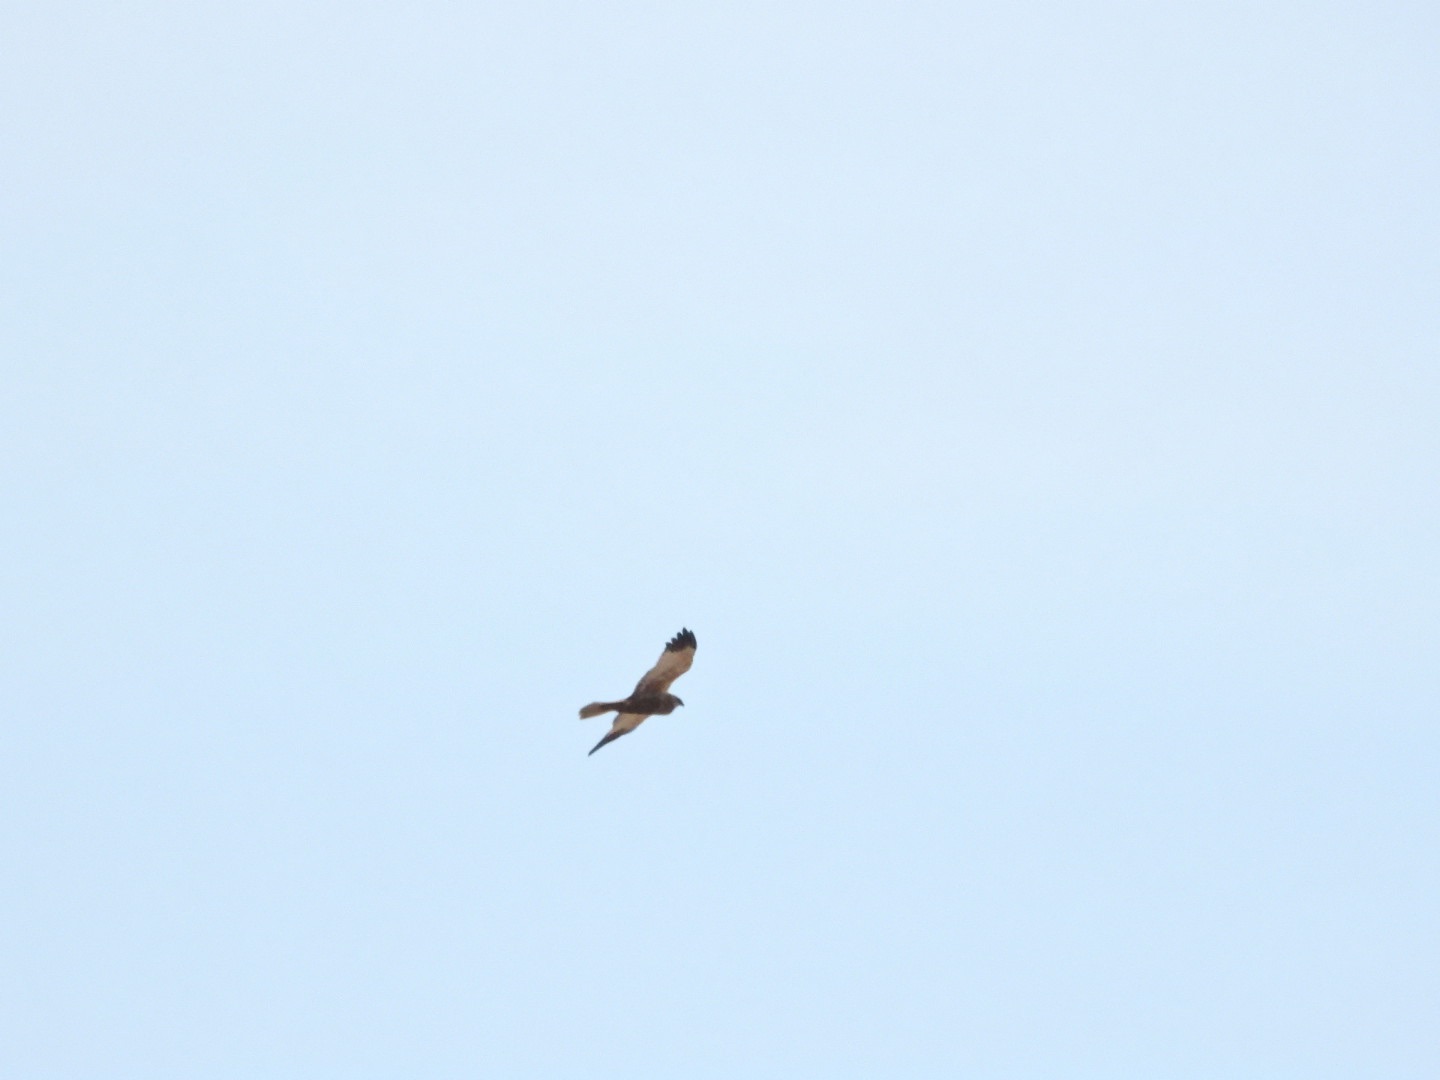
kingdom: Animalia
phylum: Chordata
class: Aves
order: Accipitriformes
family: Accipitridae
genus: Circus
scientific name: Circus aeruginosus
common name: Rørhøg
